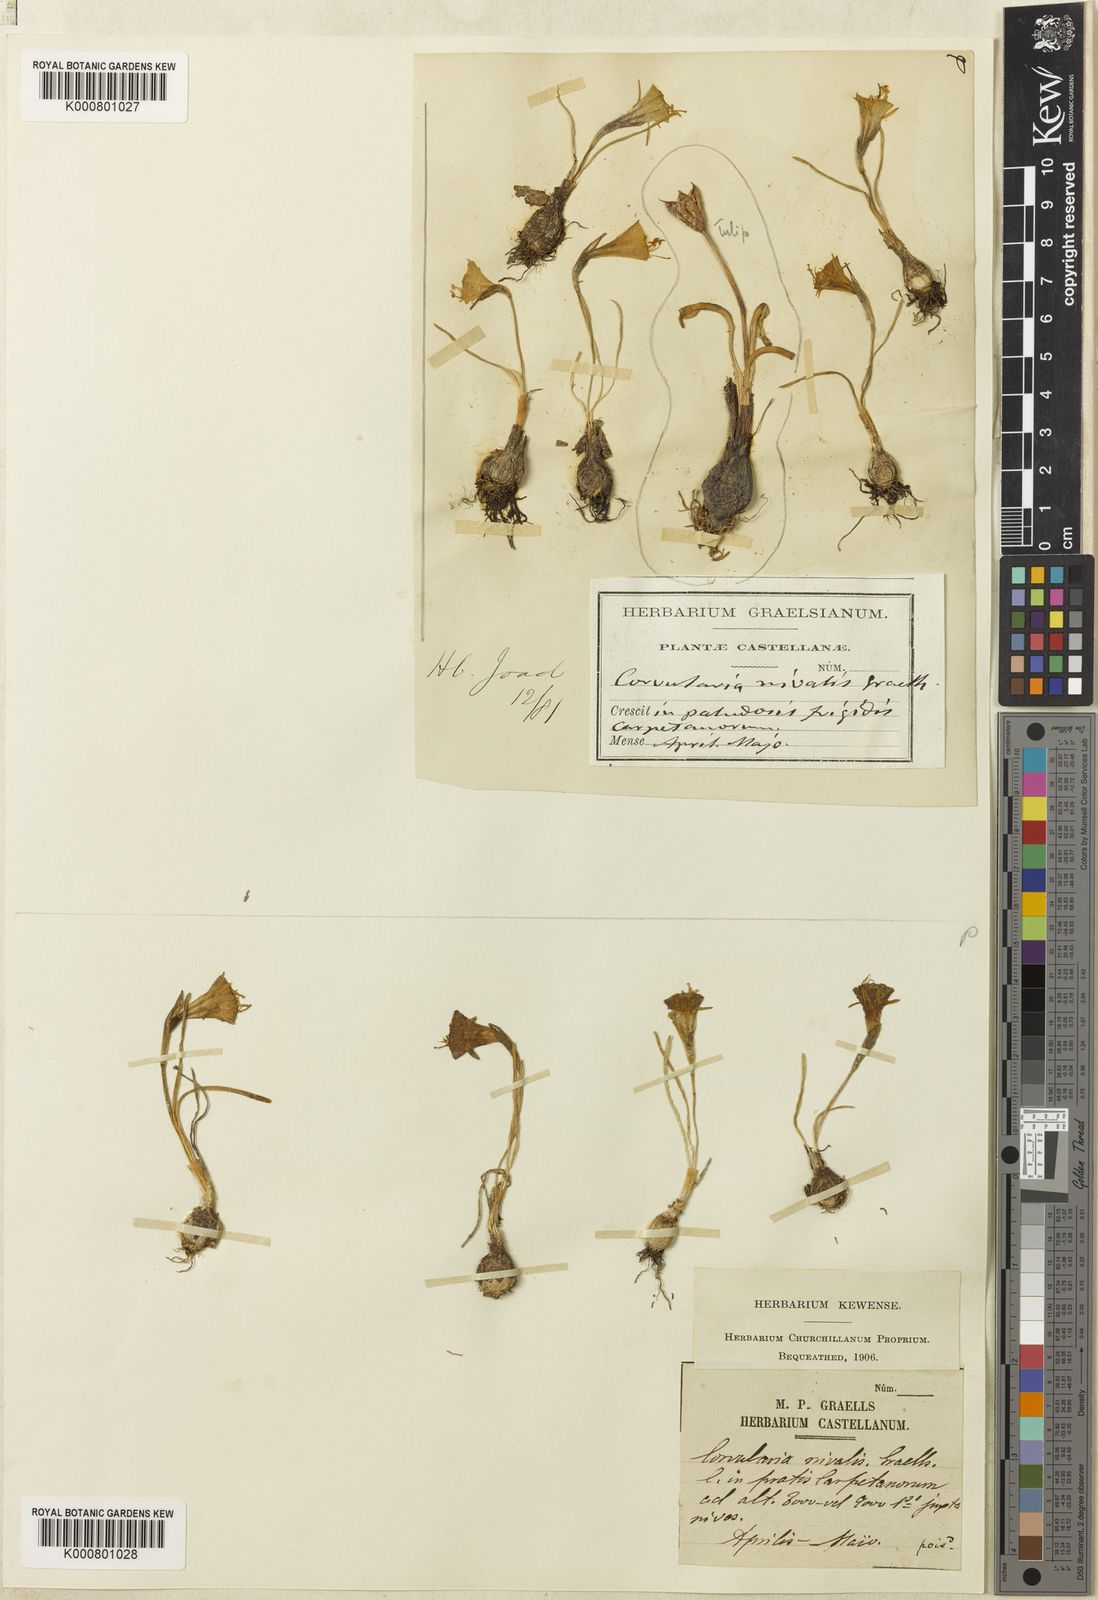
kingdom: Plantae
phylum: Tracheophyta
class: Liliopsida
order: Asparagales
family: Amaryllidaceae
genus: Narcissus
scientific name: Narcissus bulbocodium
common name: Hoop-petticoat daffodil
